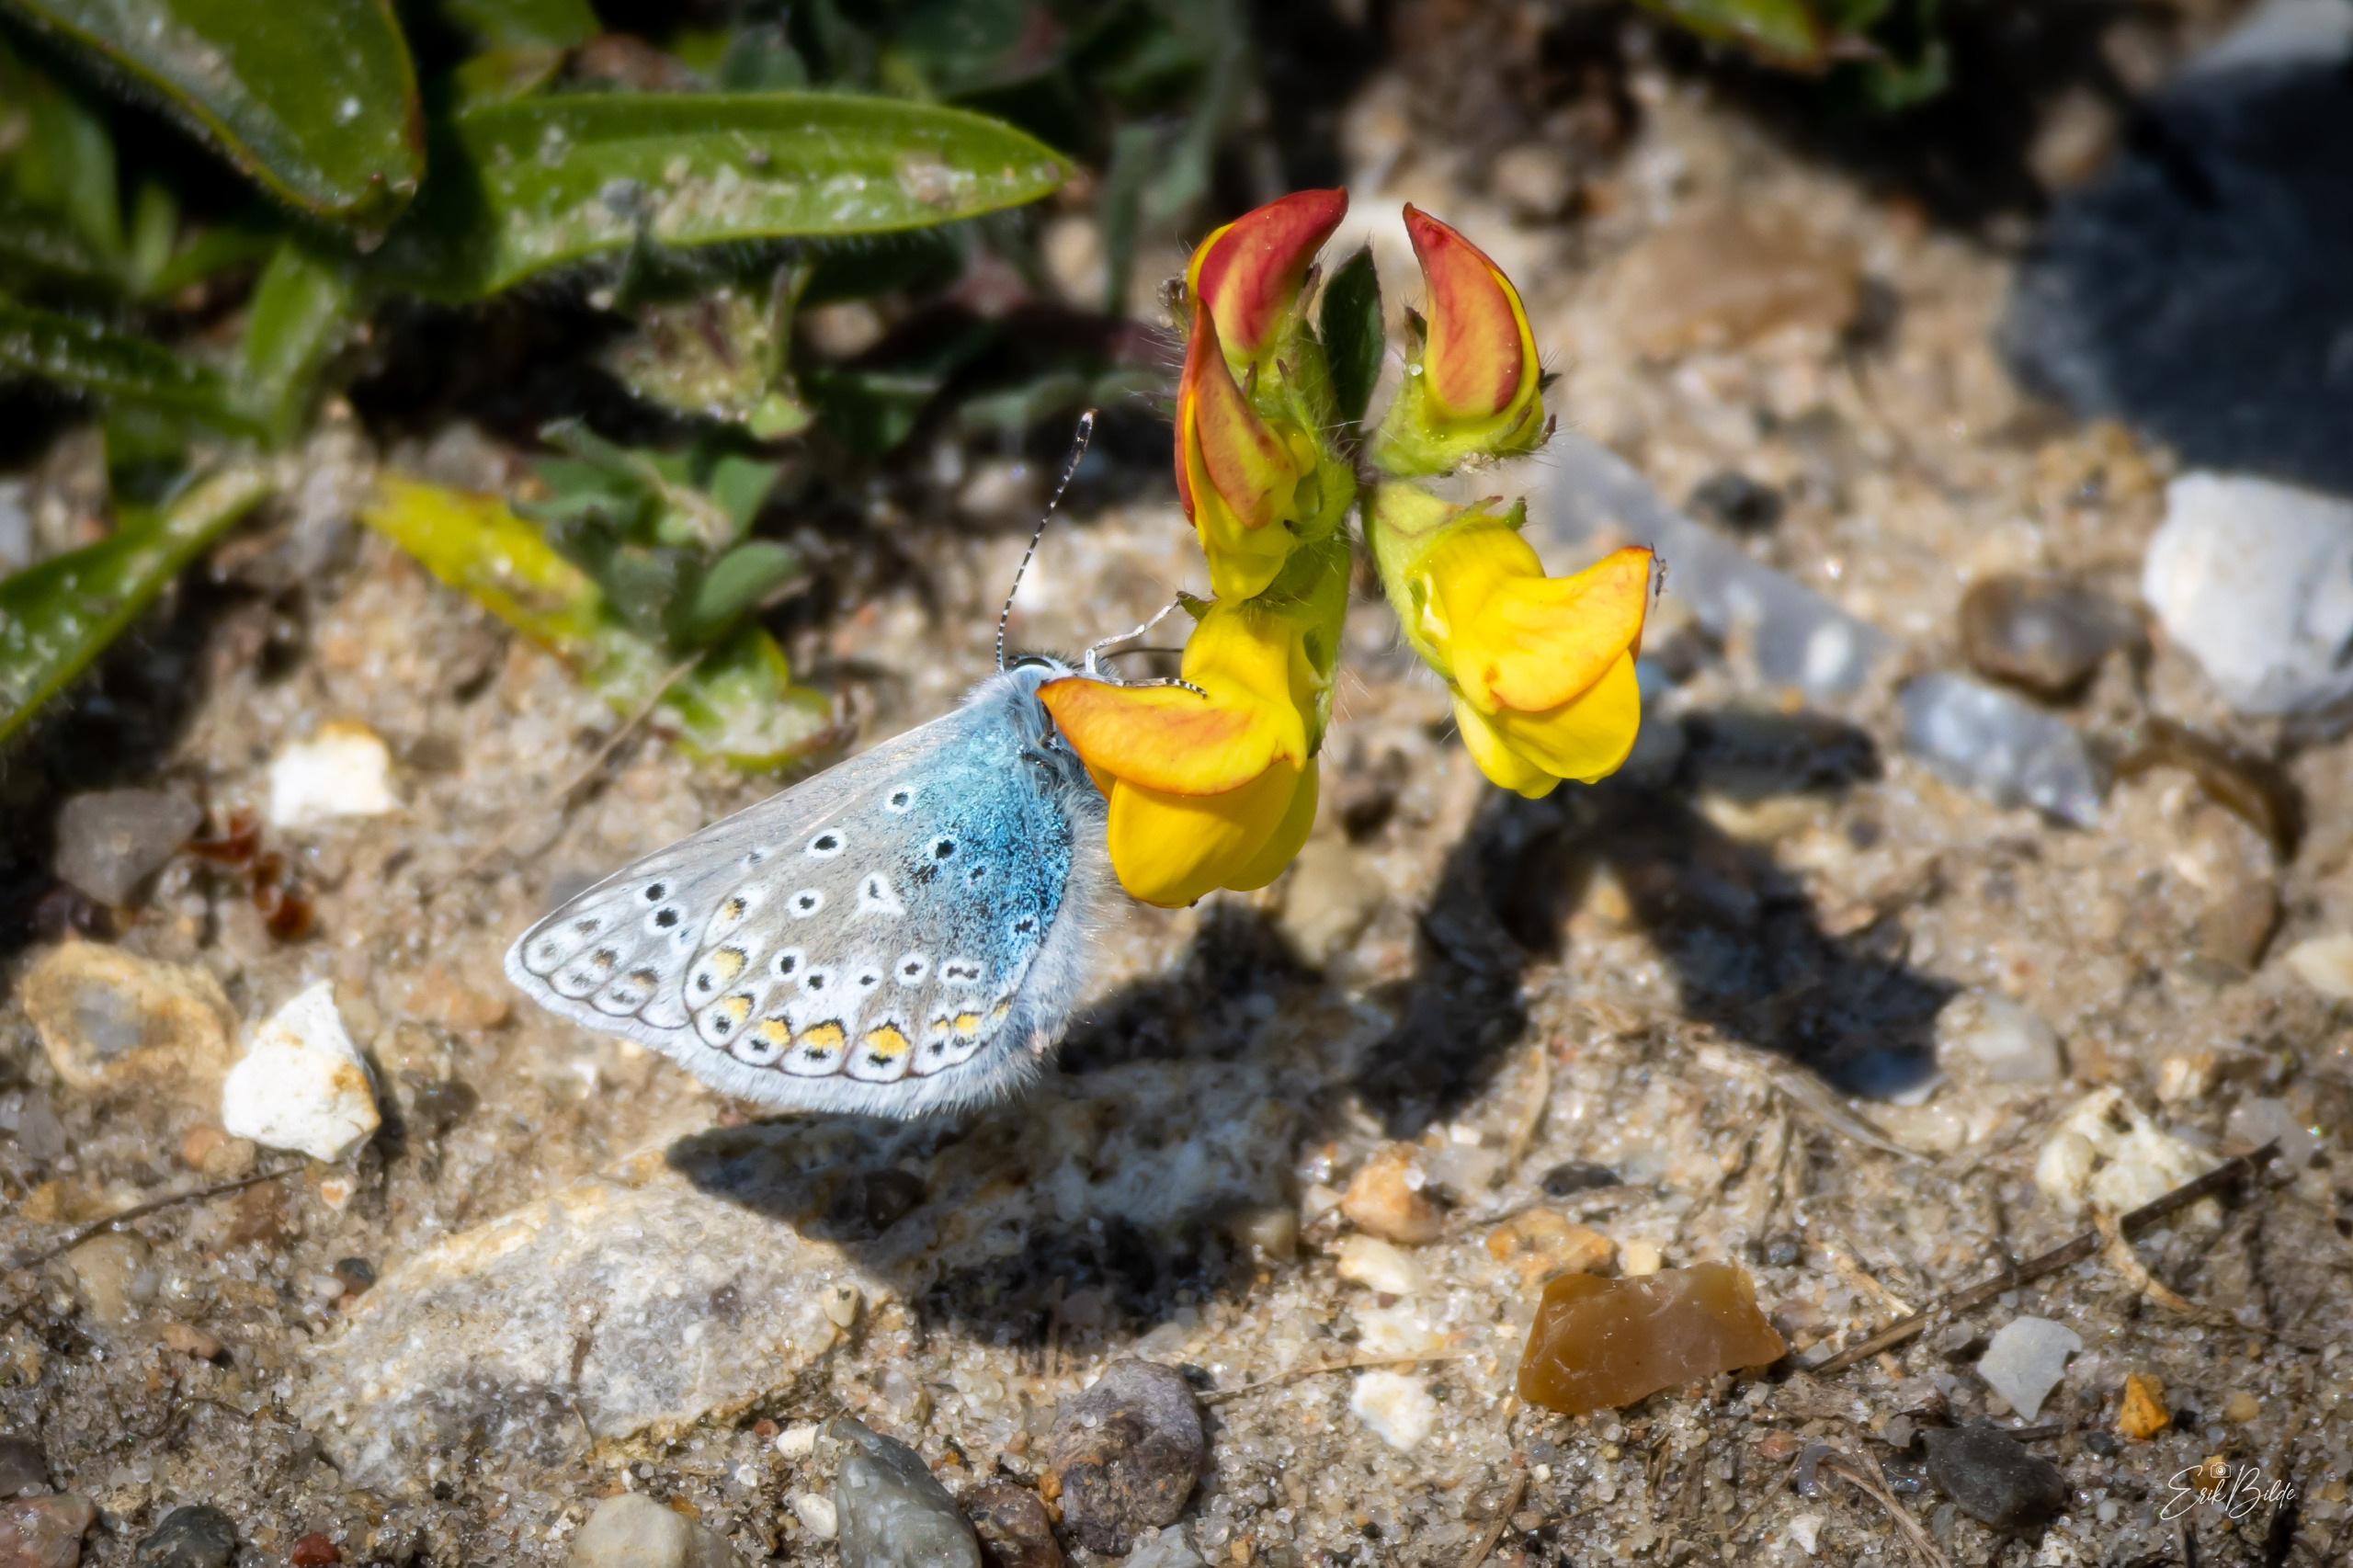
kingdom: Animalia
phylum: Arthropoda
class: Insecta
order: Lepidoptera
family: Lycaenidae
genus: Polyommatus
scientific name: Polyommatus icarus
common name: Almindelig blåfugl
